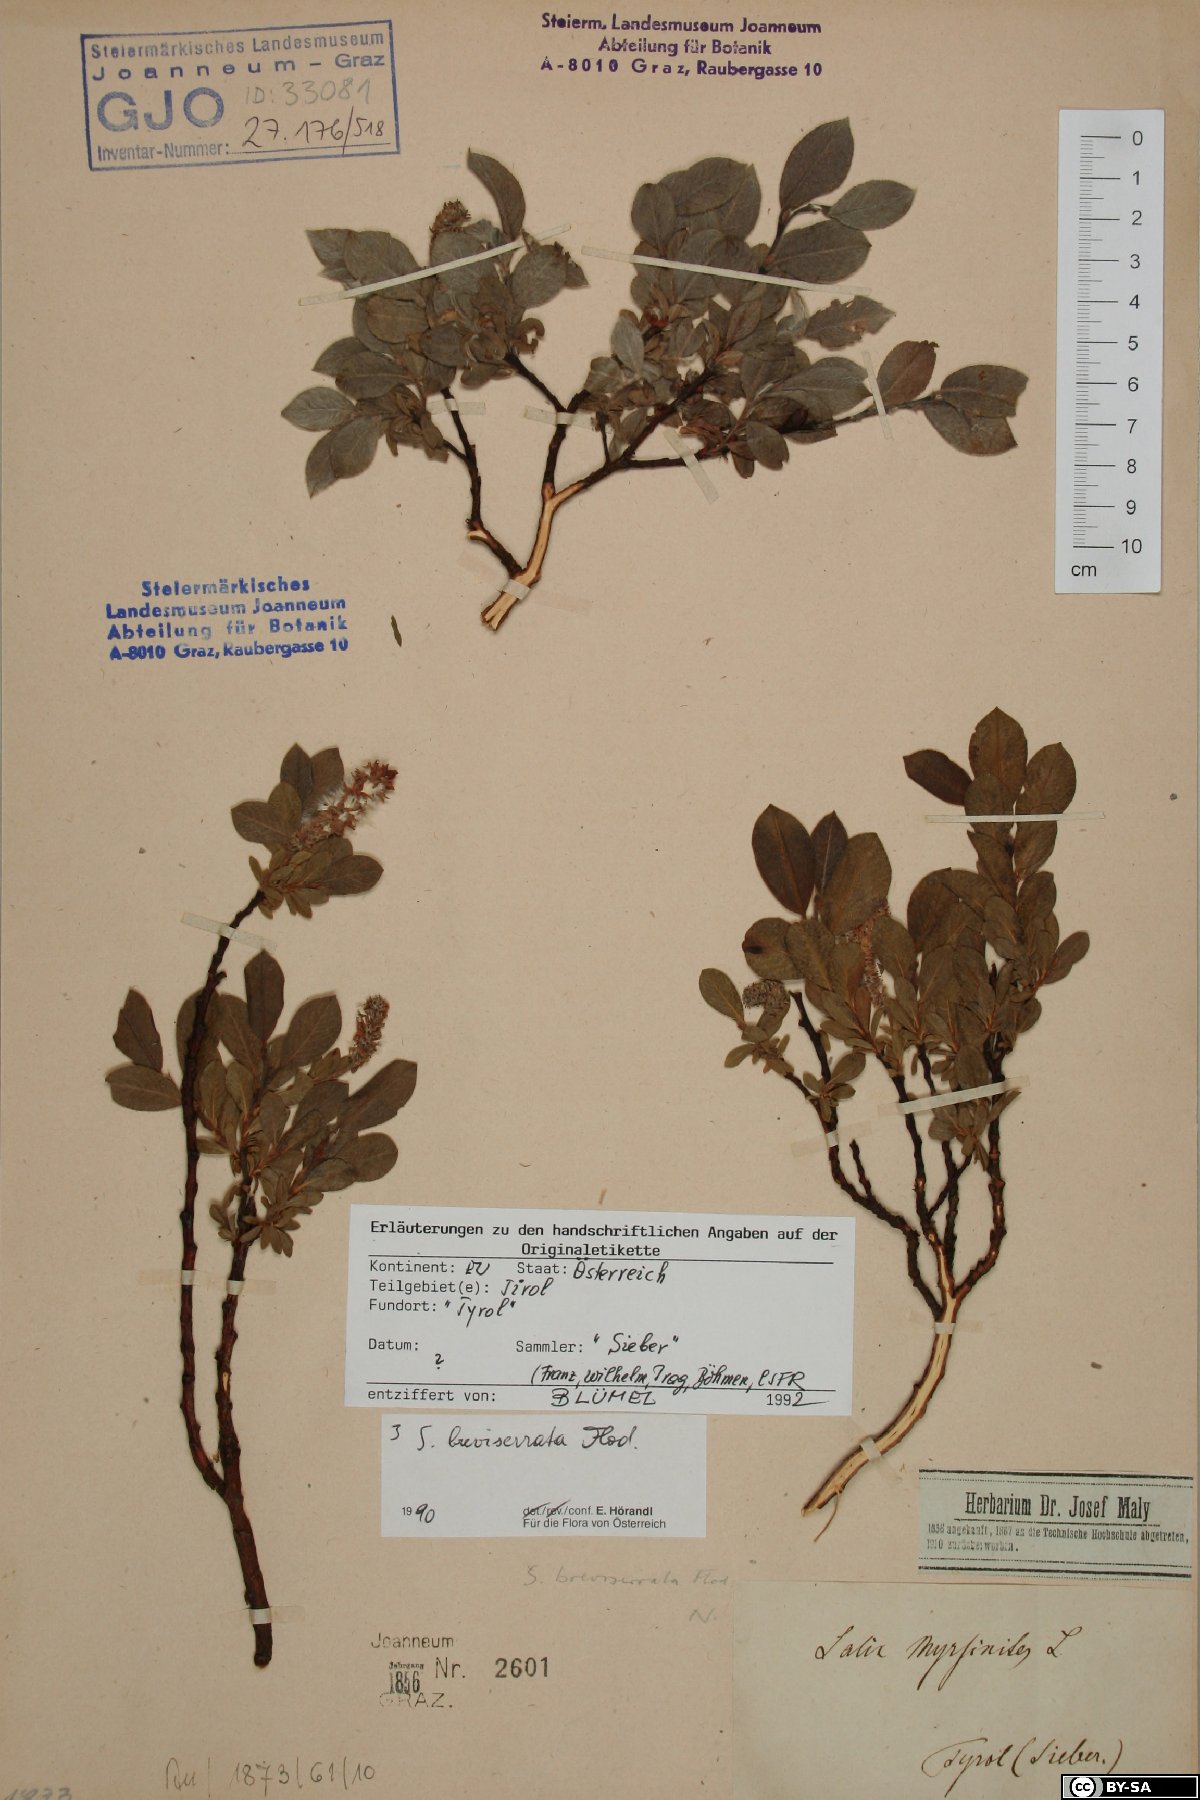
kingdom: Plantae
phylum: Tracheophyta
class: Magnoliopsida
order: Malpighiales
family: Salicaceae
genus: Salix
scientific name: Salix breviserrata
